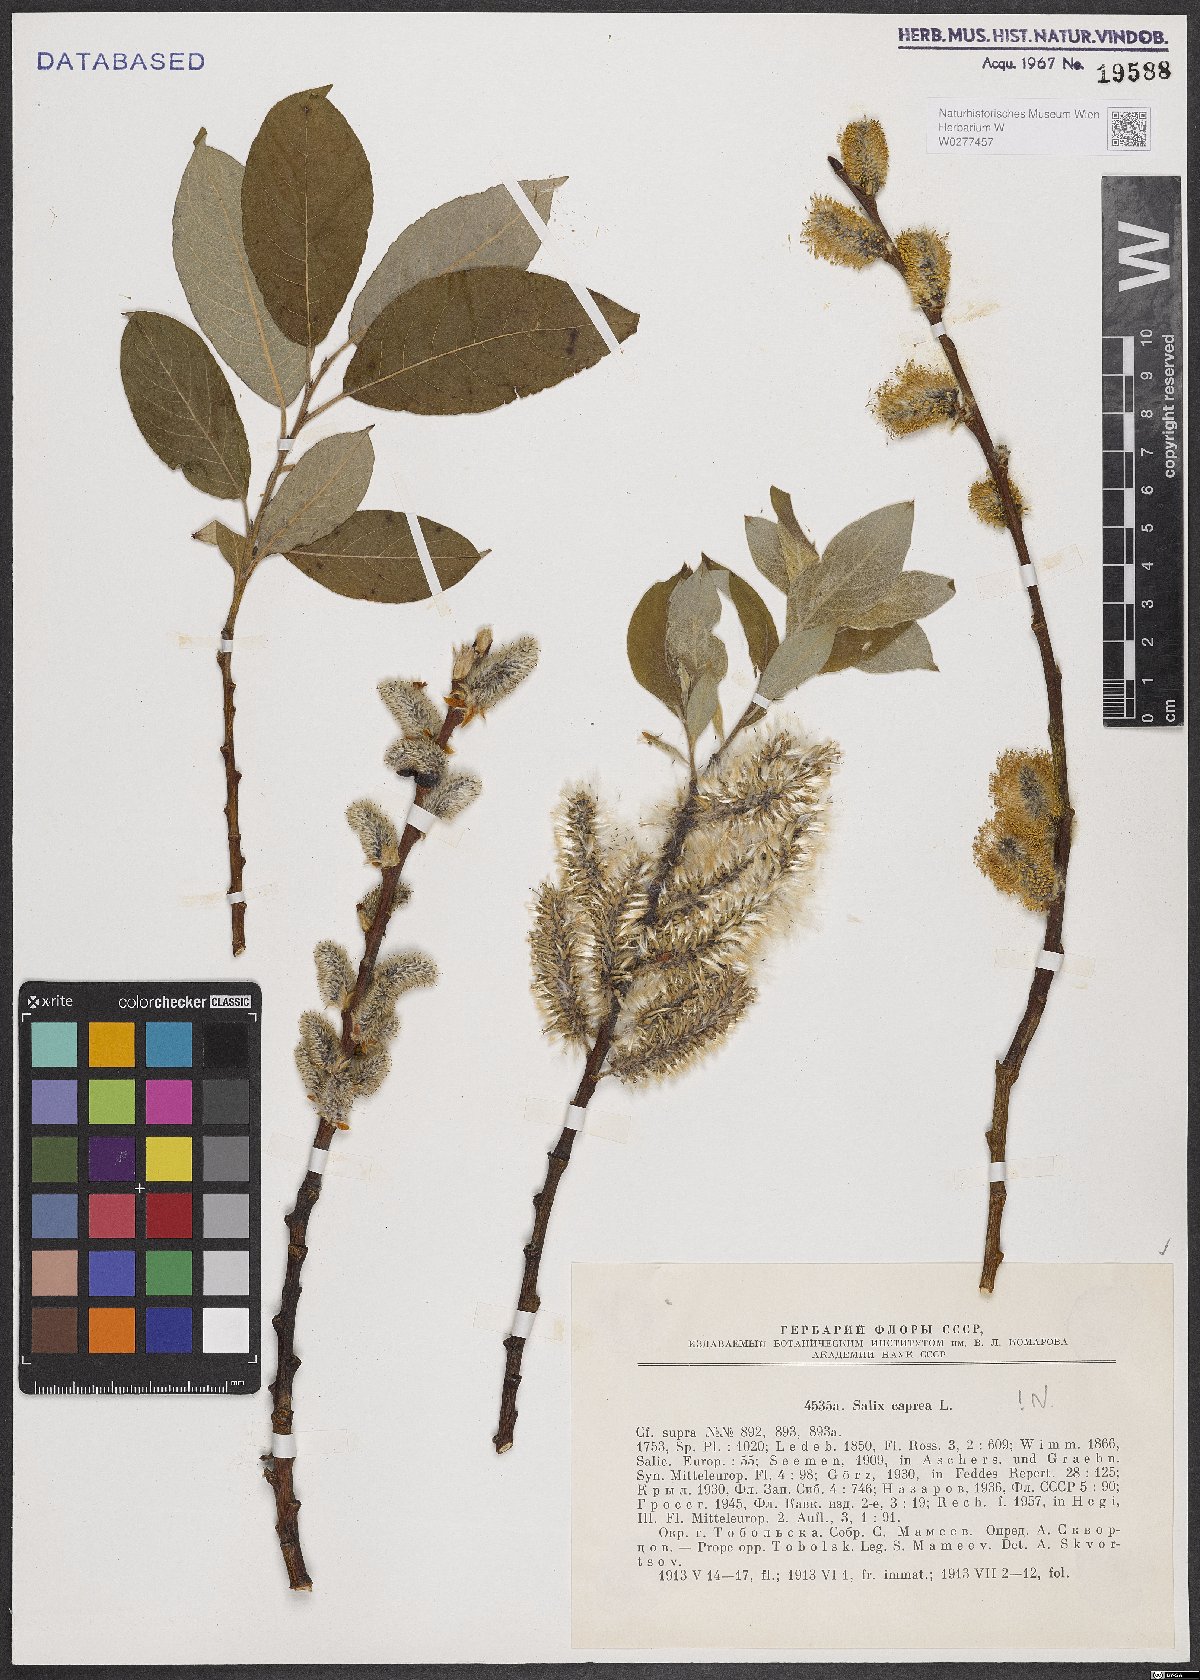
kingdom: Plantae
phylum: Tracheophyta
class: Magnoliopsida
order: Malpighiales
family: Salicaceae
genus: Salix
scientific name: Salix caprea
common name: Goat willow
